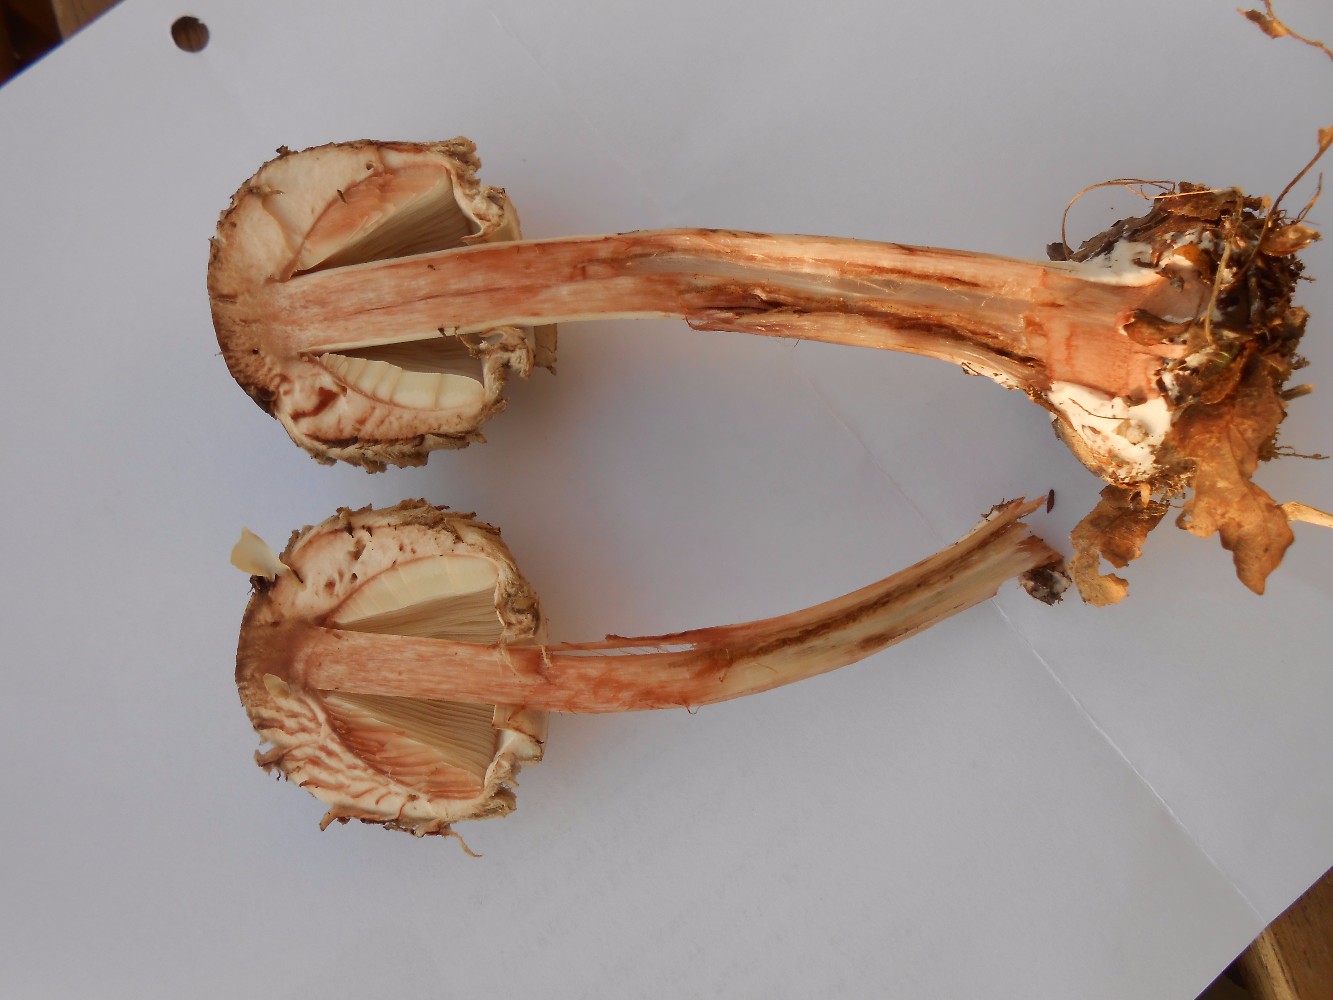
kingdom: Fungi
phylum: Basidiomycota
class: Agaricomycetes
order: Agaricales
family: Agaricaceae
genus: Chlorophyllum
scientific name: Chlorophyllum olivieri
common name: almindelig rabarberhat
